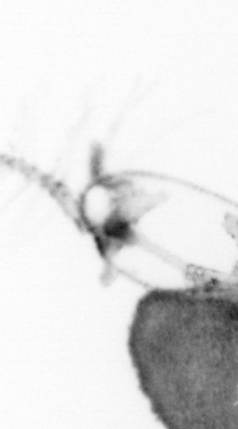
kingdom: Animalia
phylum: Arthropoda
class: Copepoda
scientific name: Copepoda
